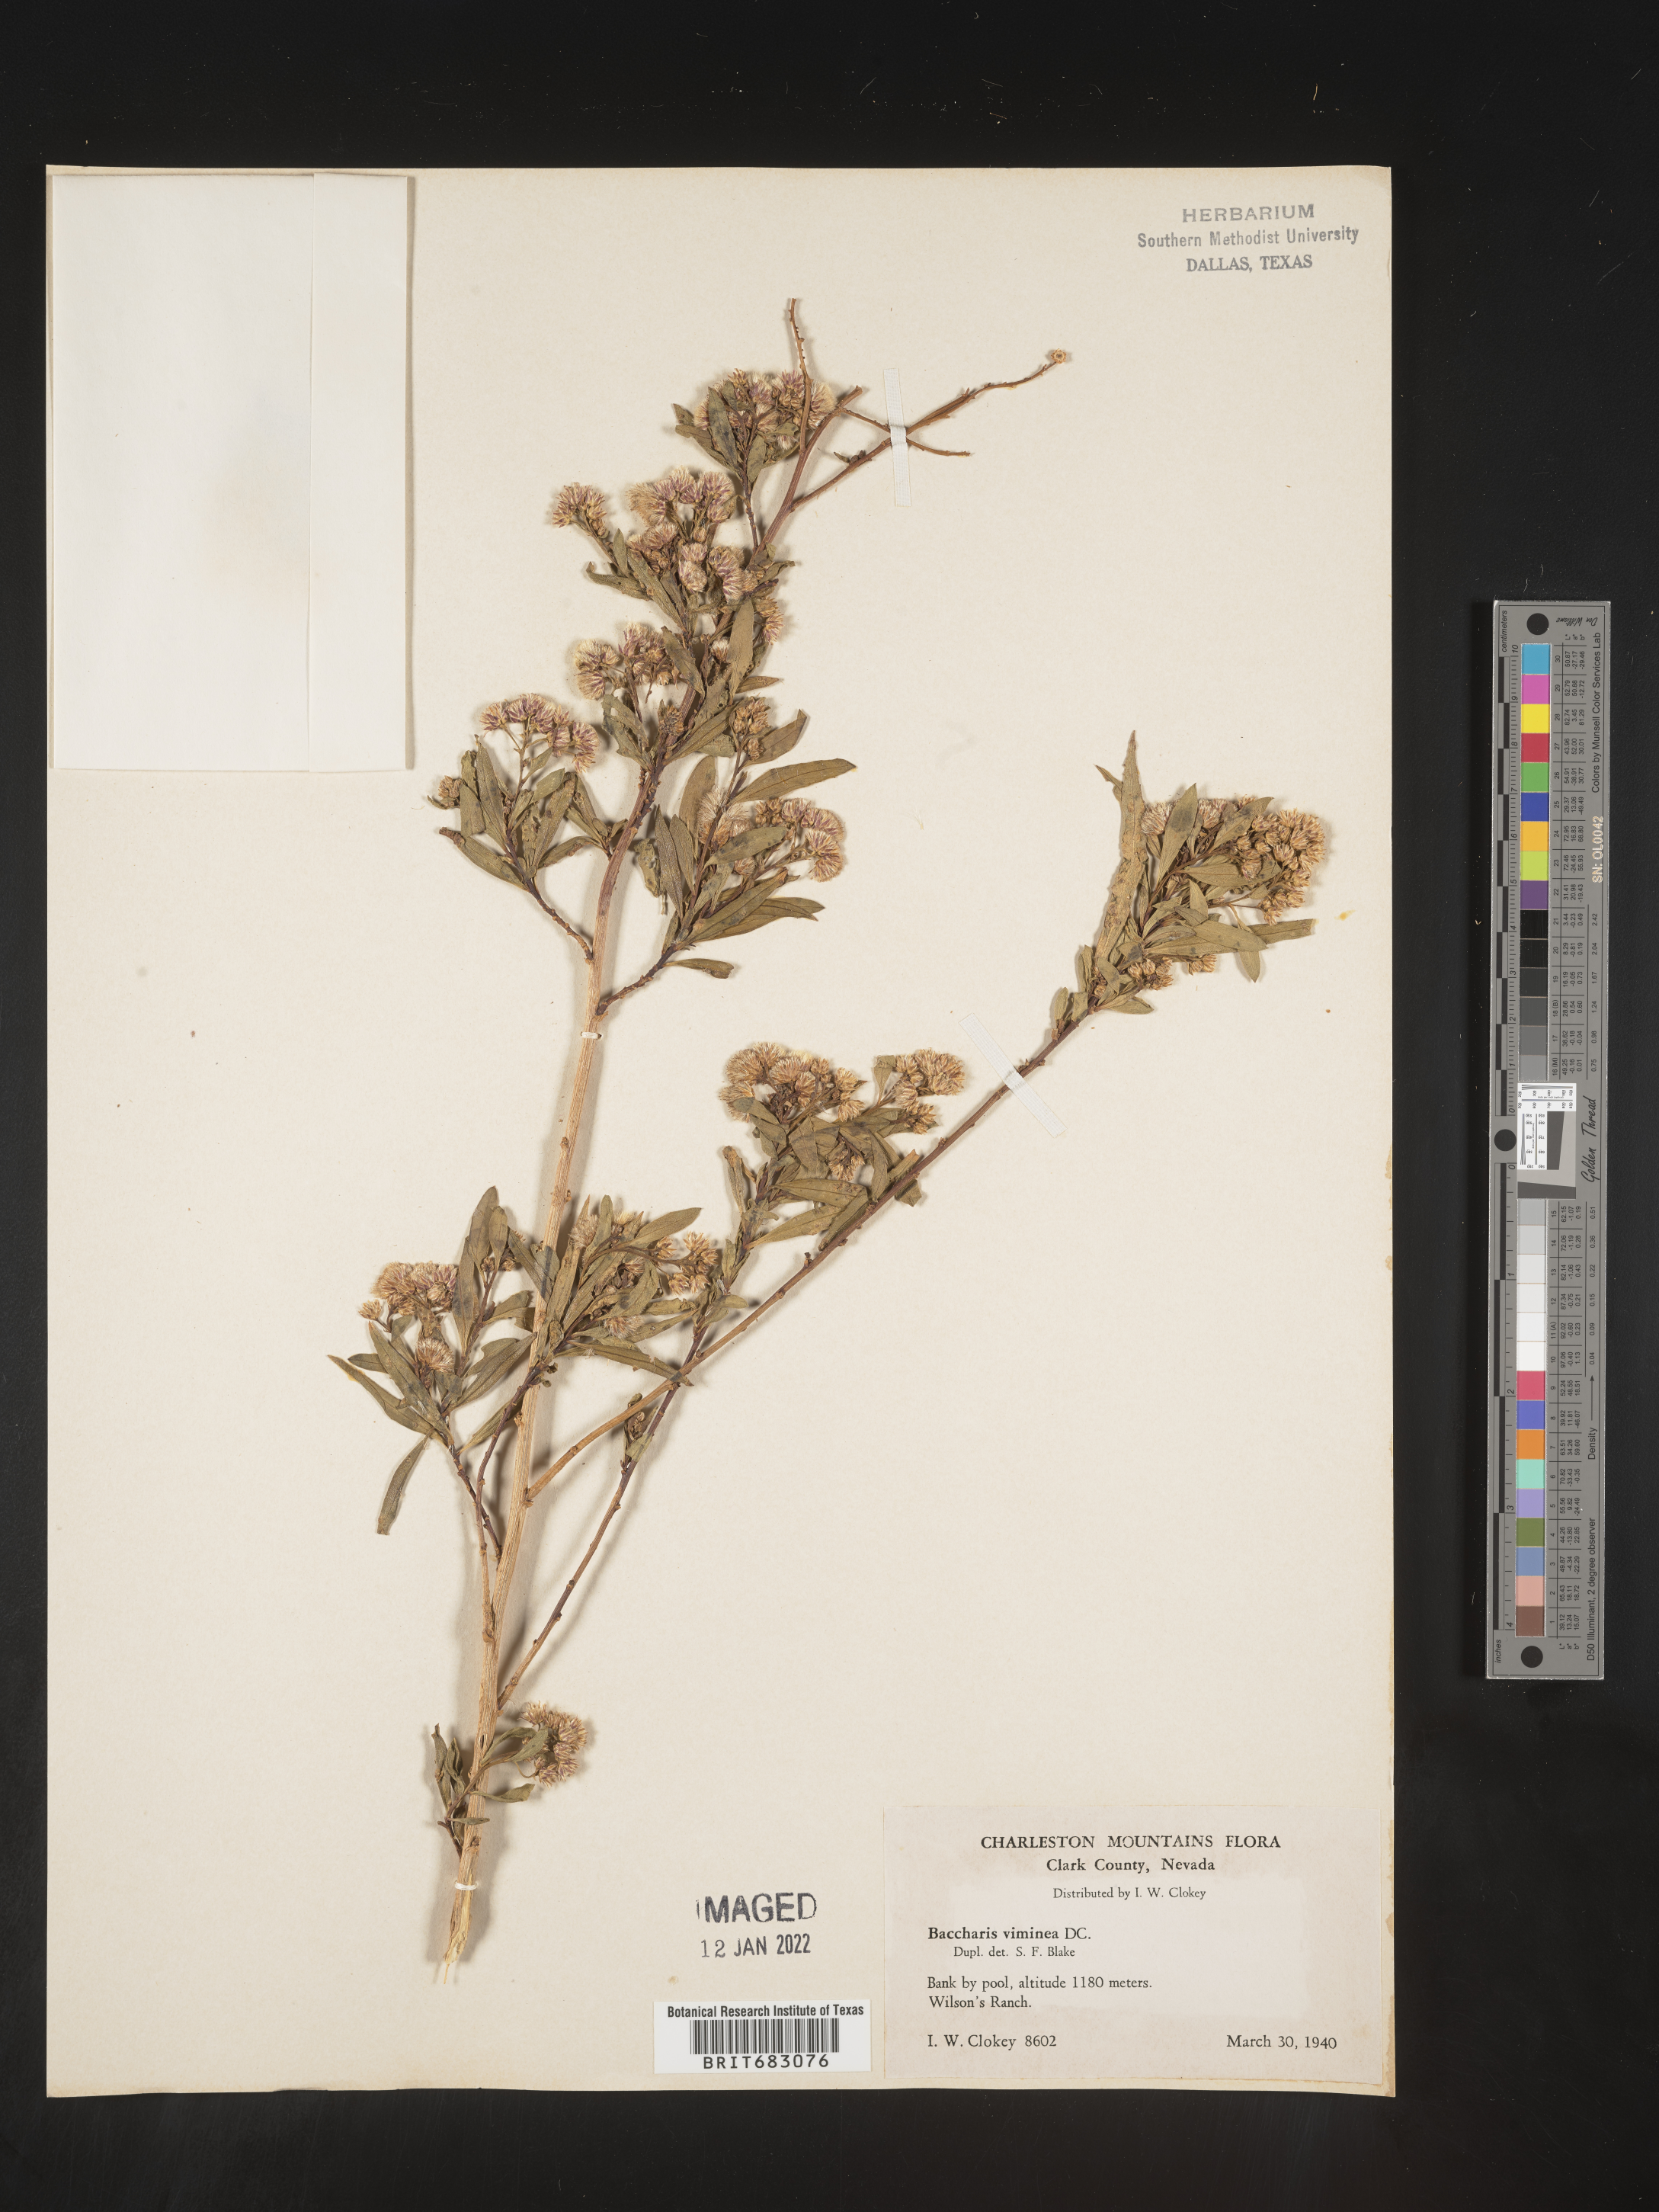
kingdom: Plantae
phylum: Tracheophyta
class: Magnoliopsida
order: Asterales
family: Asteraceae
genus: Baccharis
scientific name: Baccharis salicifolia
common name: Sticky baccharis
